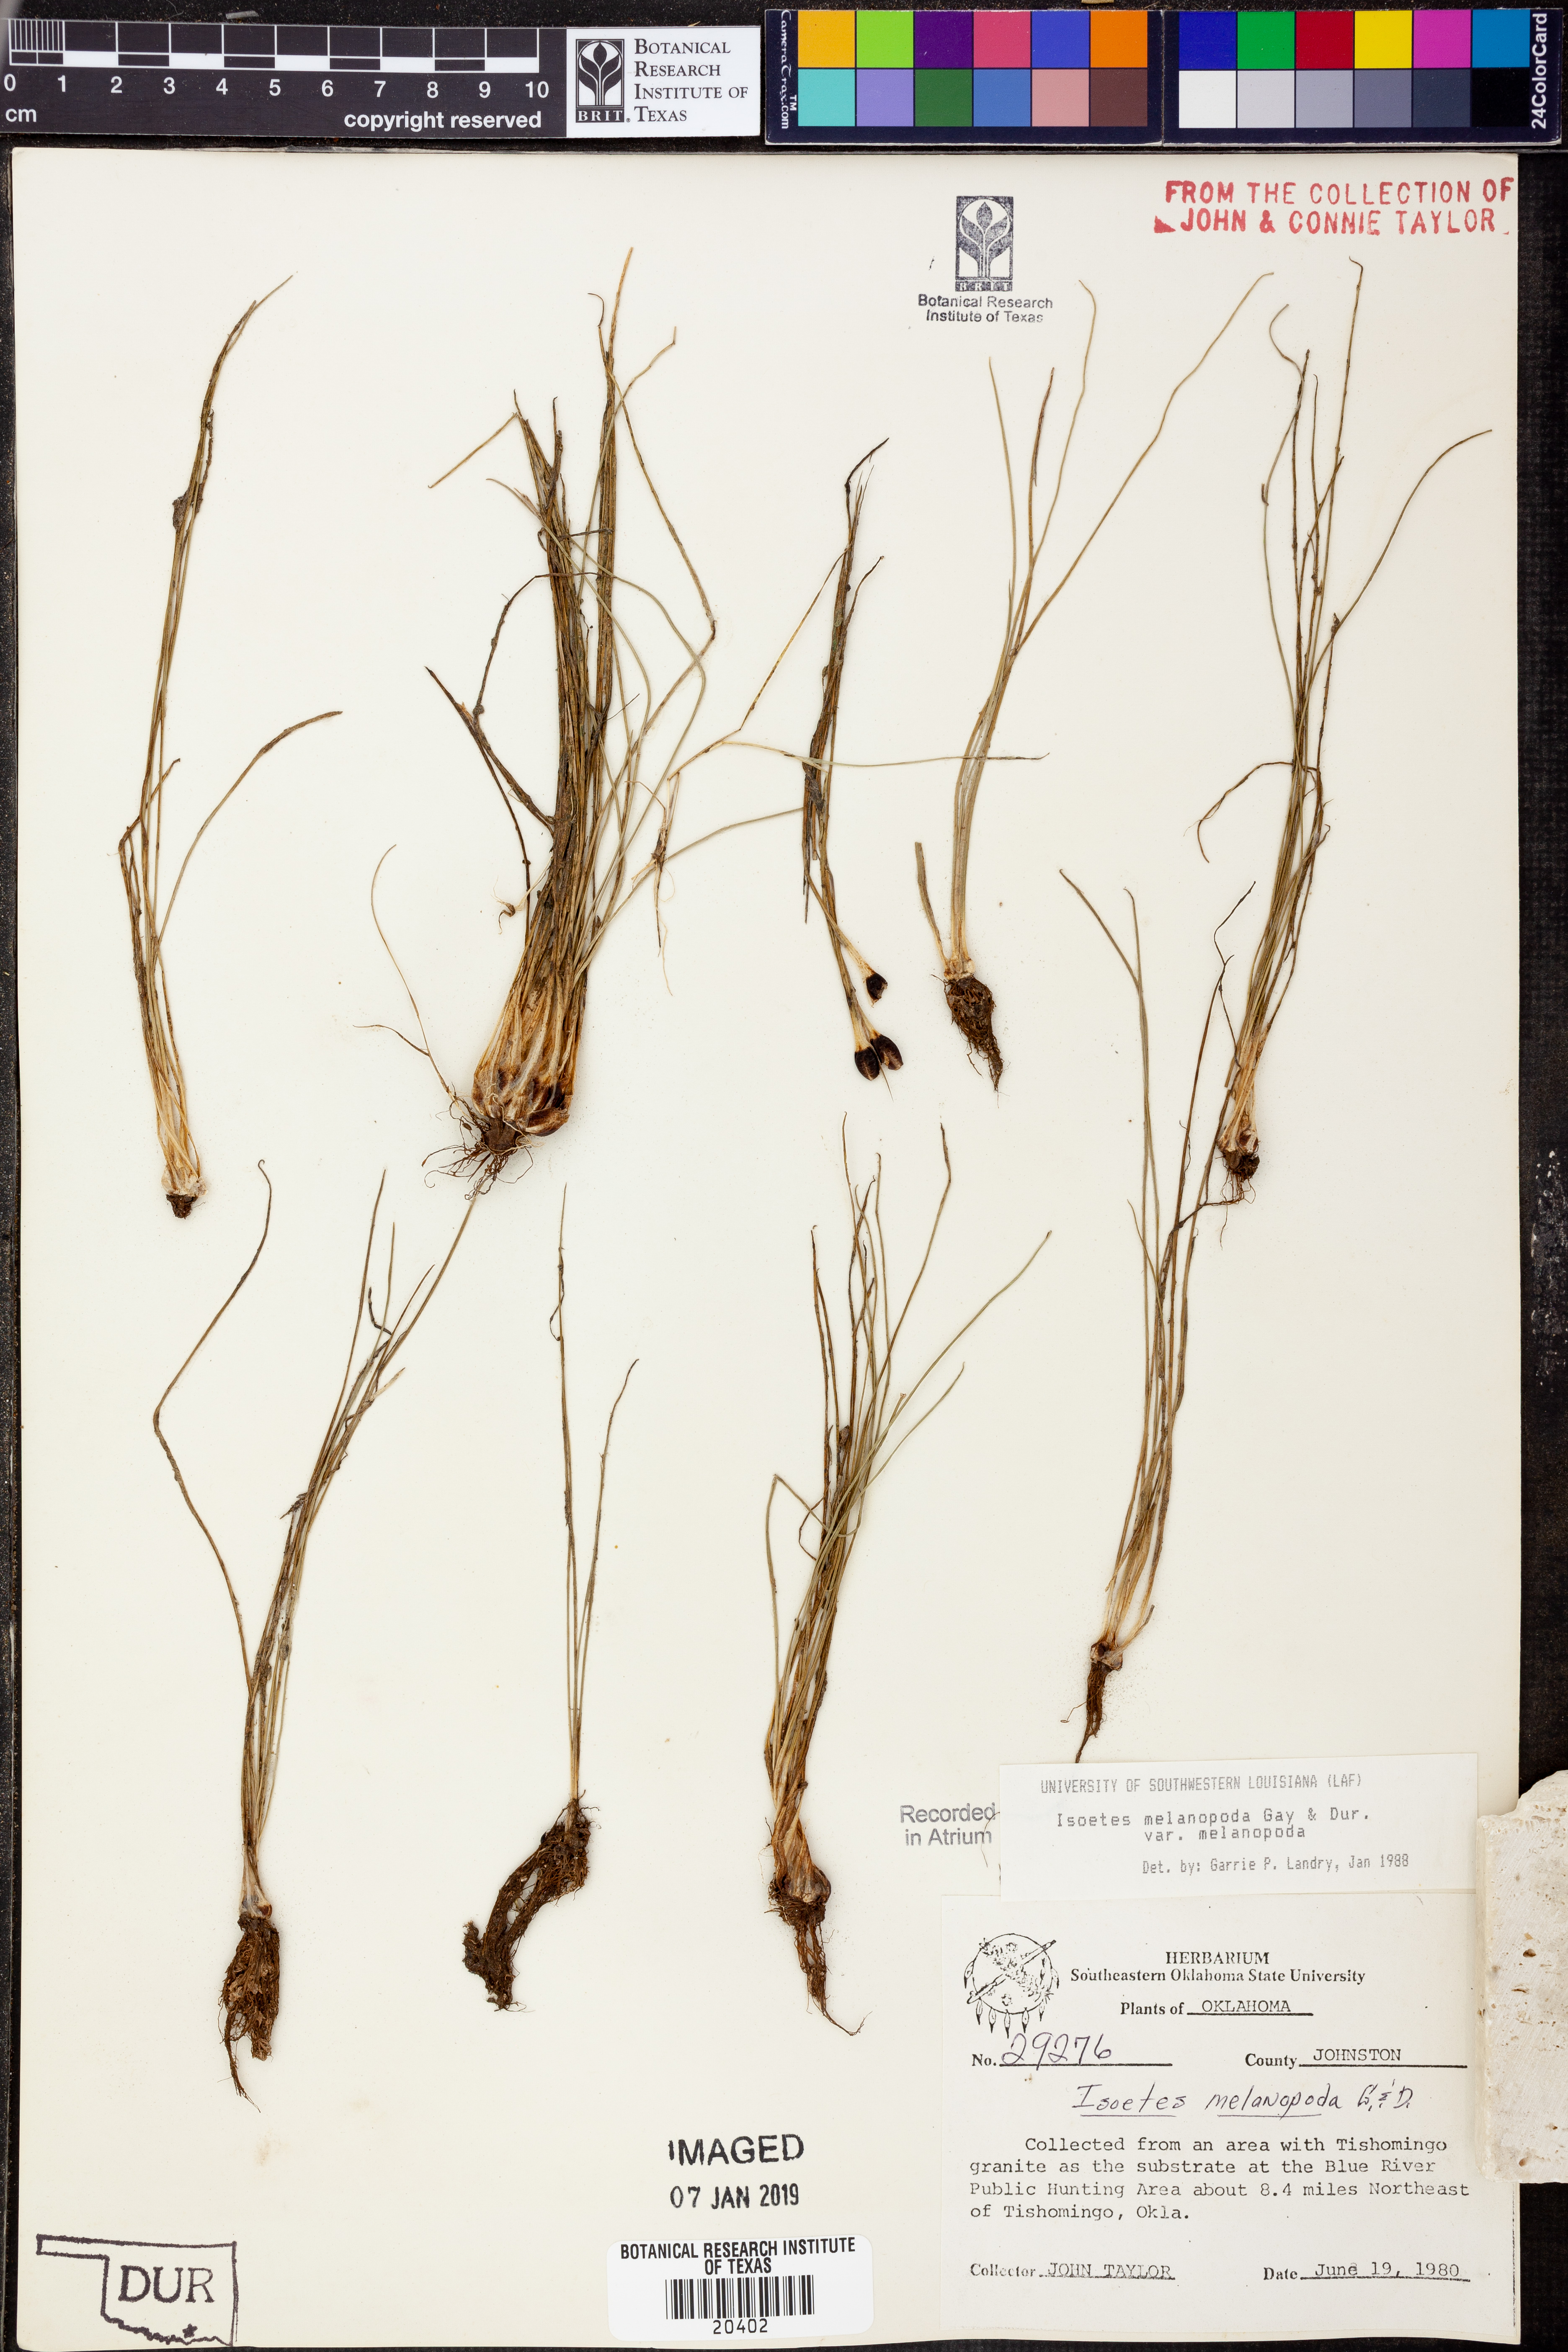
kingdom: Plantae
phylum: Tracheophyta
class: Lycopodiopsida
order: Isoetales
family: Isoetaceae
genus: Isoetes
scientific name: Isoetes melanopoda
